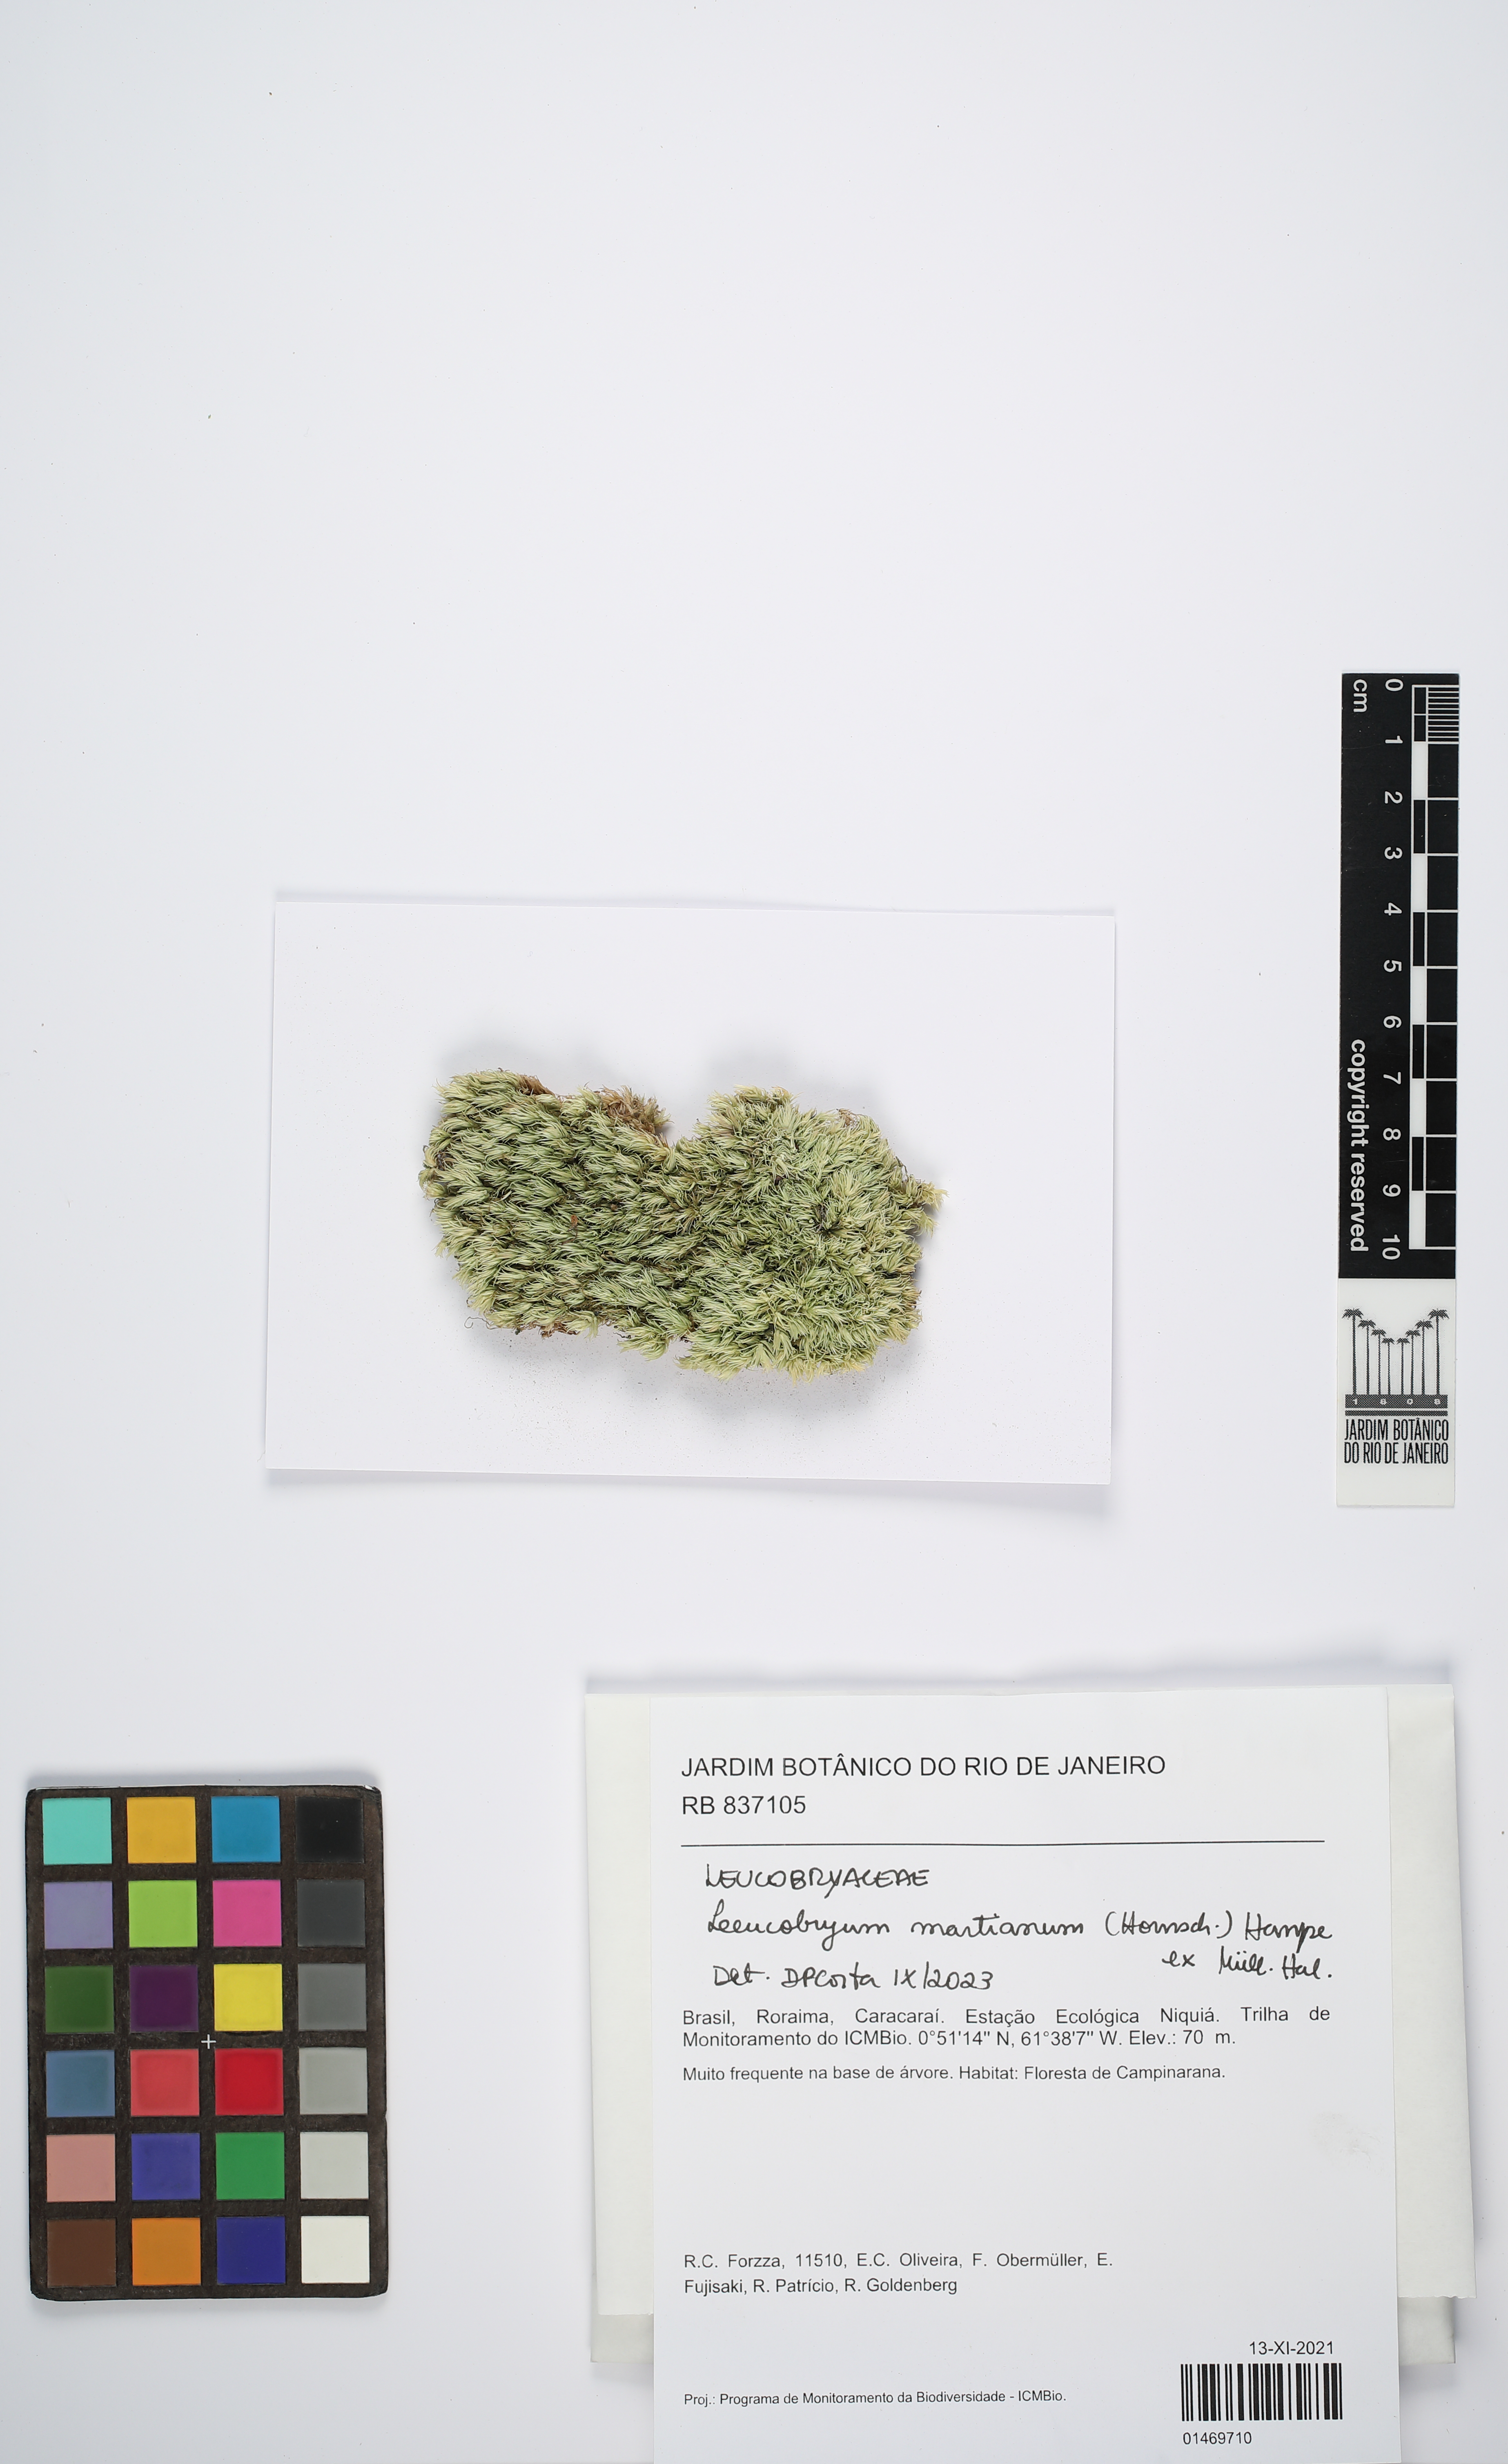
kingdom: Plantae
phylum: Bryophyta
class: Bryopsida
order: Dicranales
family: Leucobryaceae
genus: Leucobryum
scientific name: Leucobryum martianum
